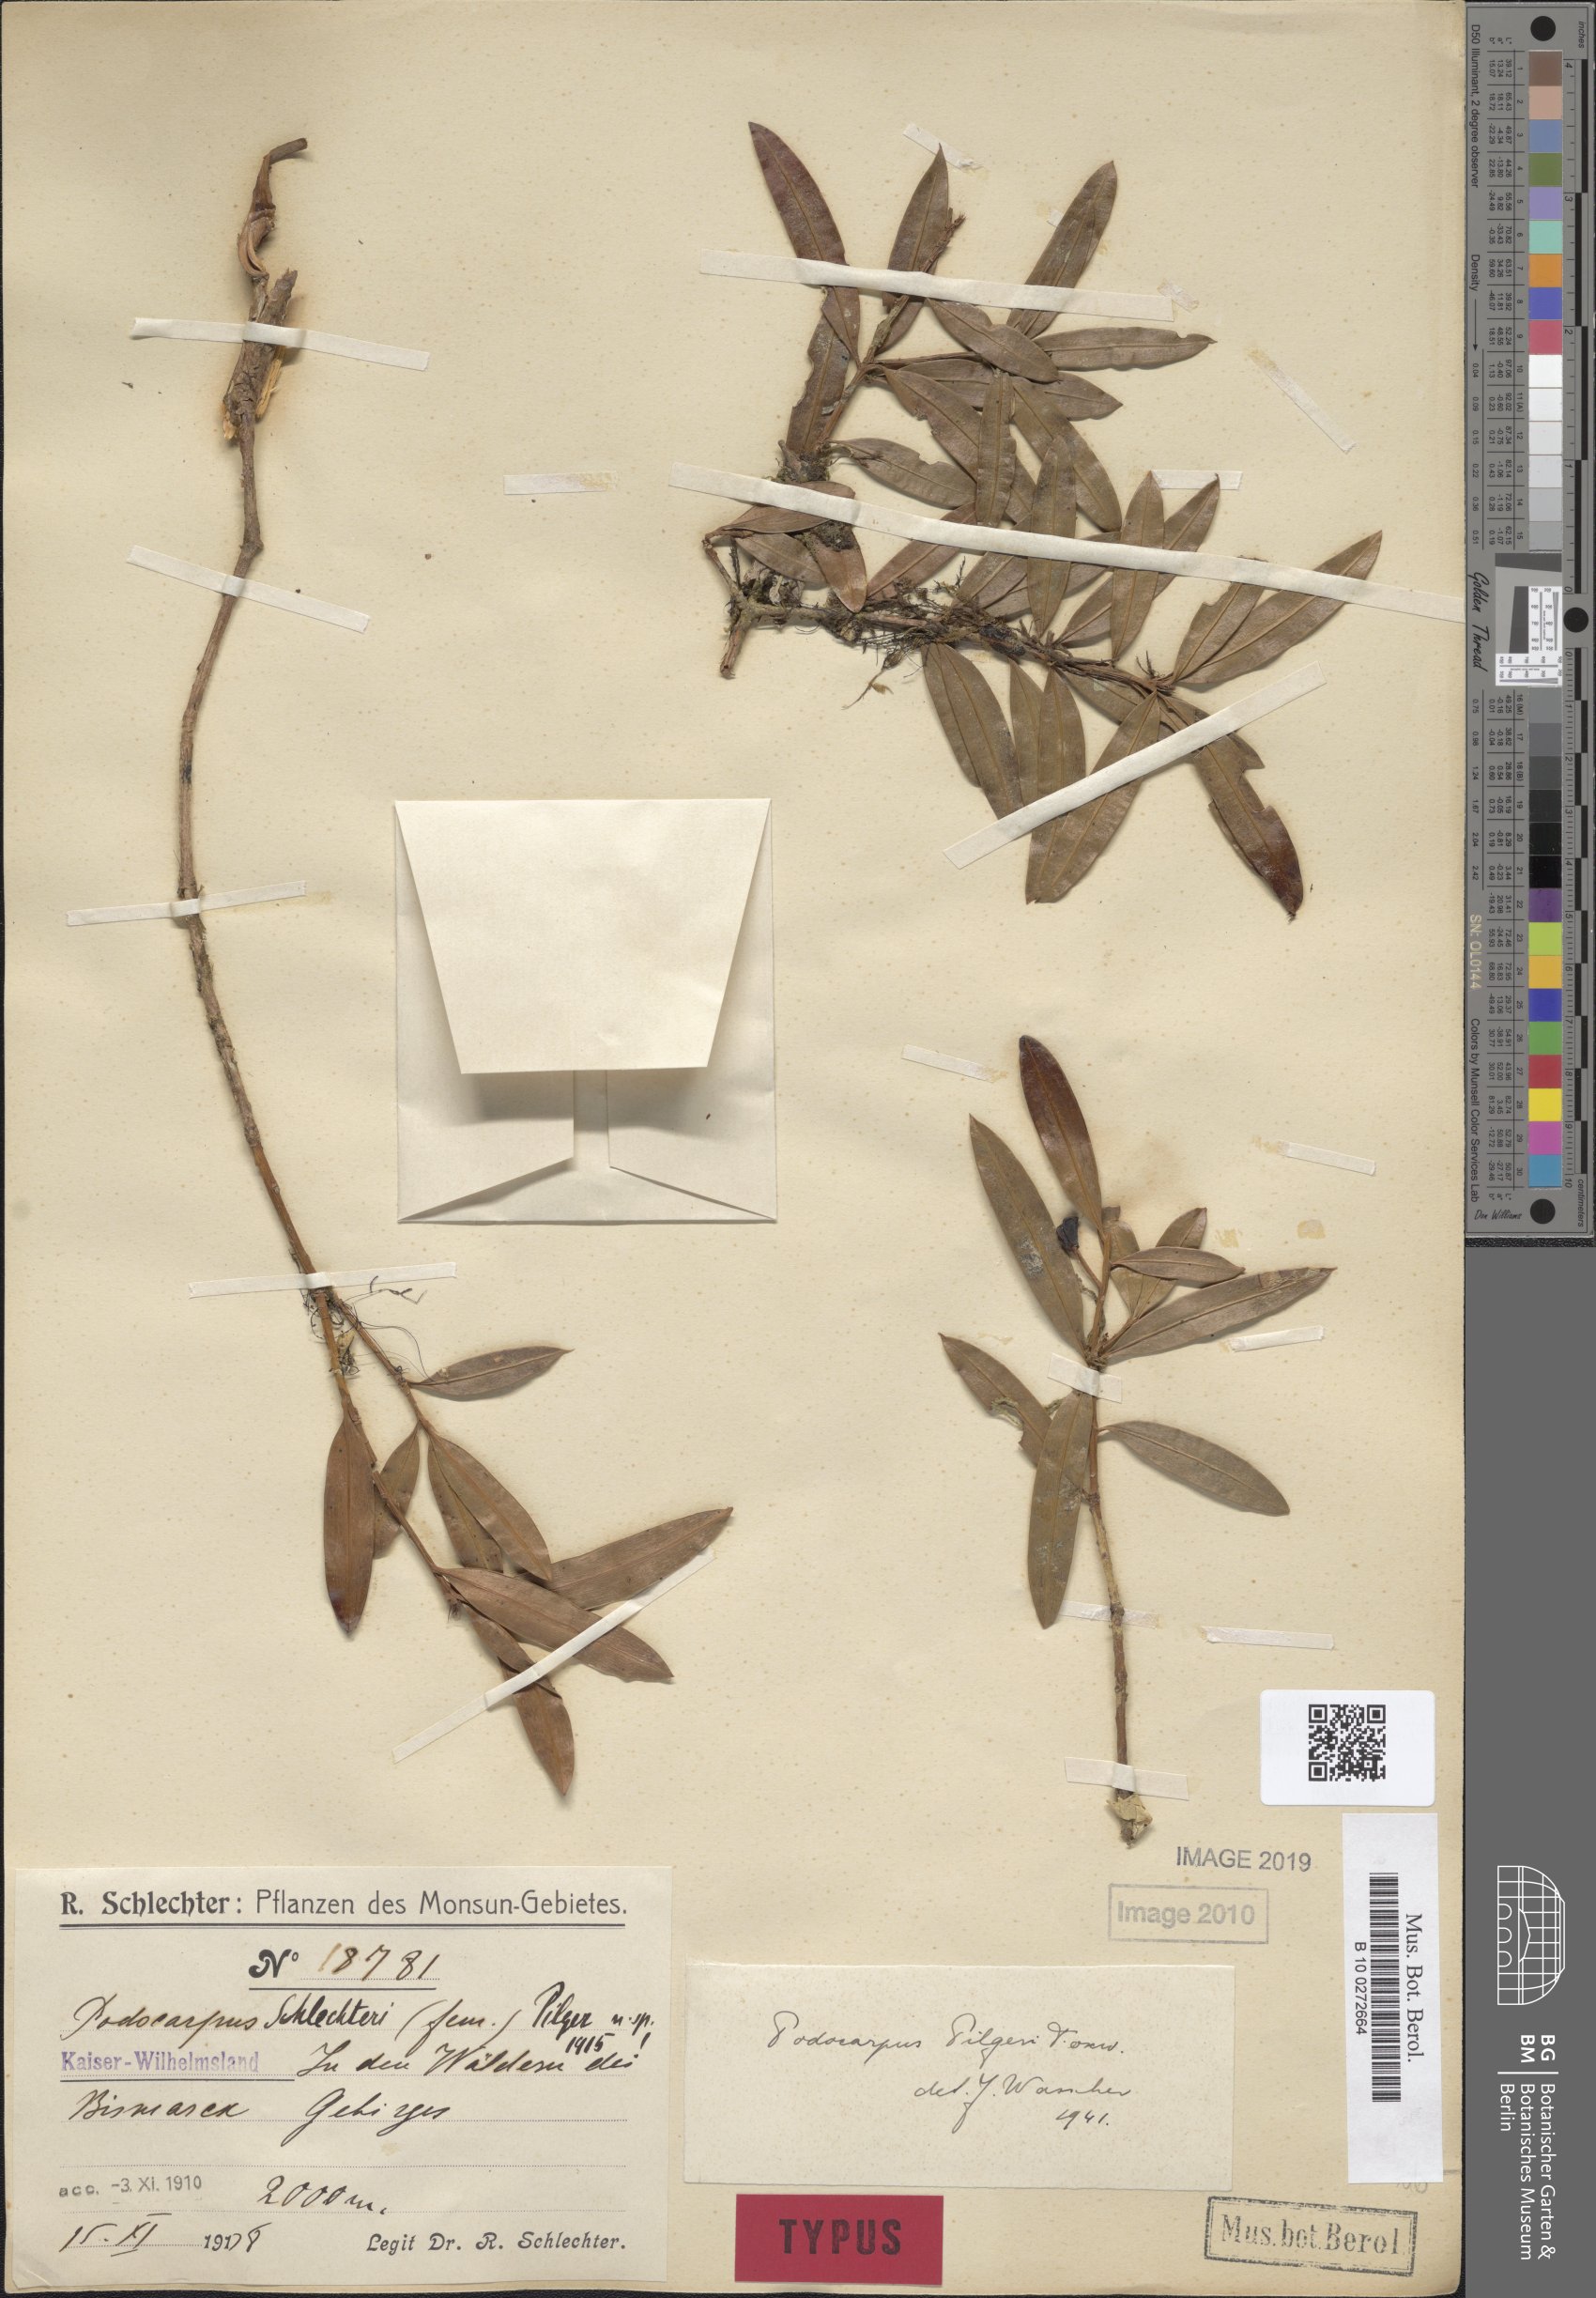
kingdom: Plantae
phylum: Tracheophyta
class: Pinopsida
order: Pinales
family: Podocarpaceae
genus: Podocarpus
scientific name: Podocarpus pilgeri
